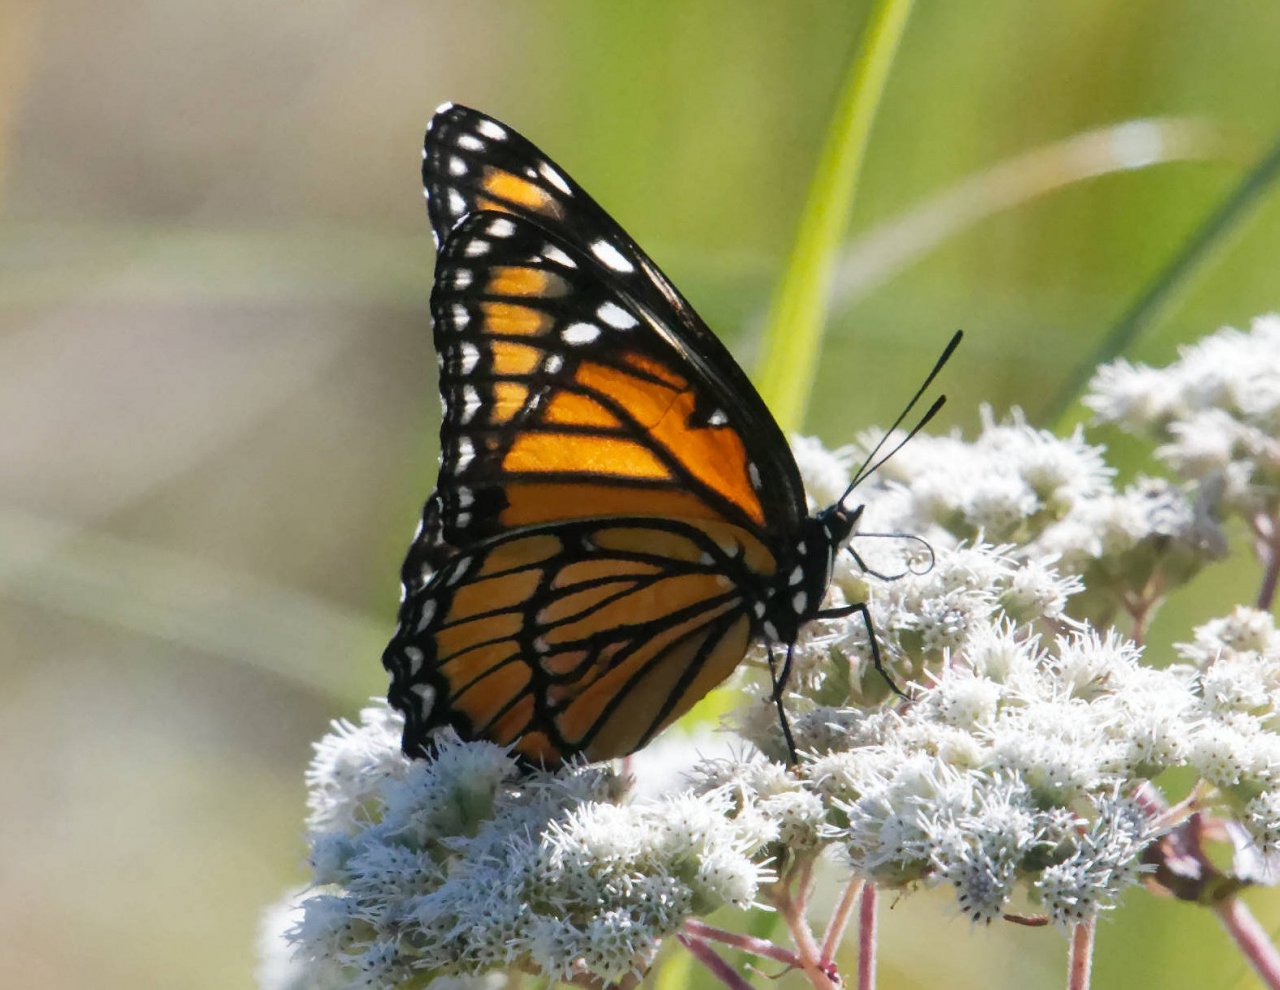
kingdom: Animalia
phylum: Arthropoda
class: Insecta
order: Lepidoptera
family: Nymphalidae
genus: Limenitis
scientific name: Limenitis archippus
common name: Viceroy
